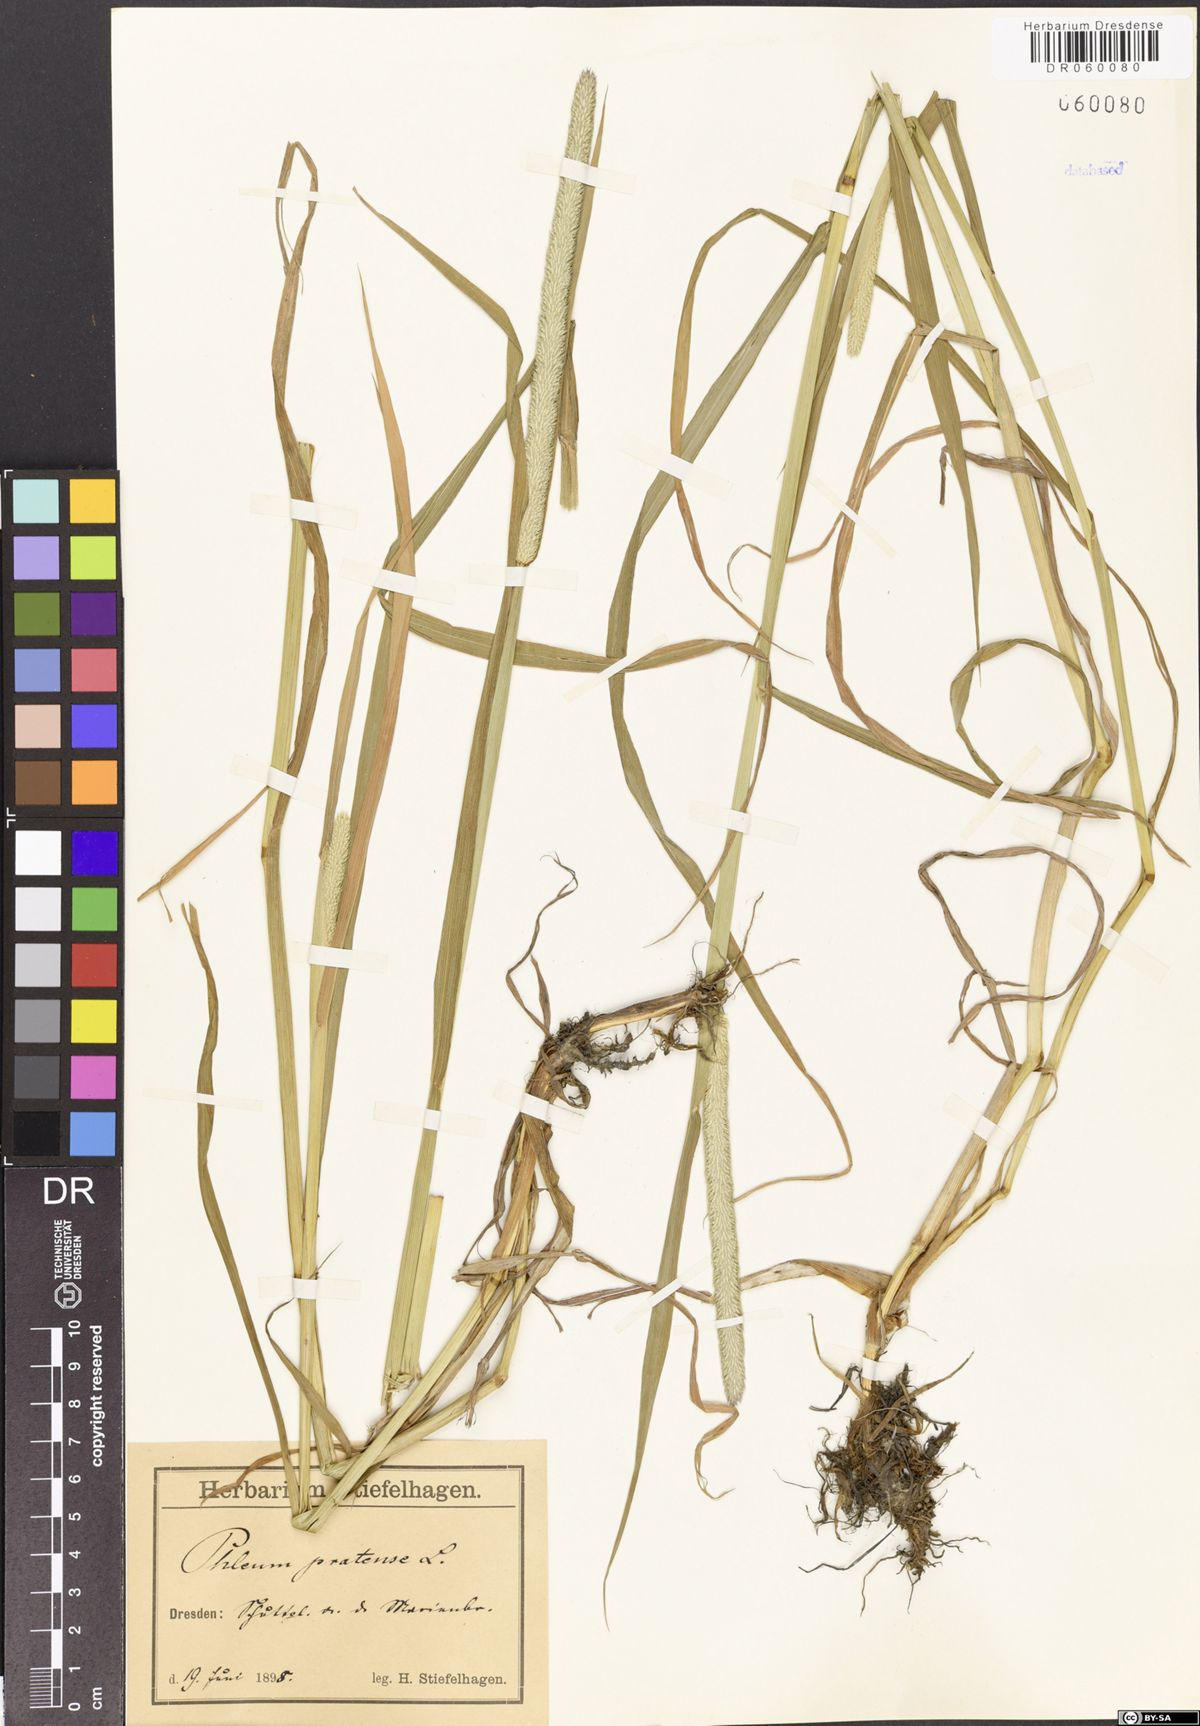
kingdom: Plantae
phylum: Tracheophyta
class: Liliopsida
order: Poales
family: Poaceae
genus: Phleum
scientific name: Phleum pratense
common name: Timothy grass
